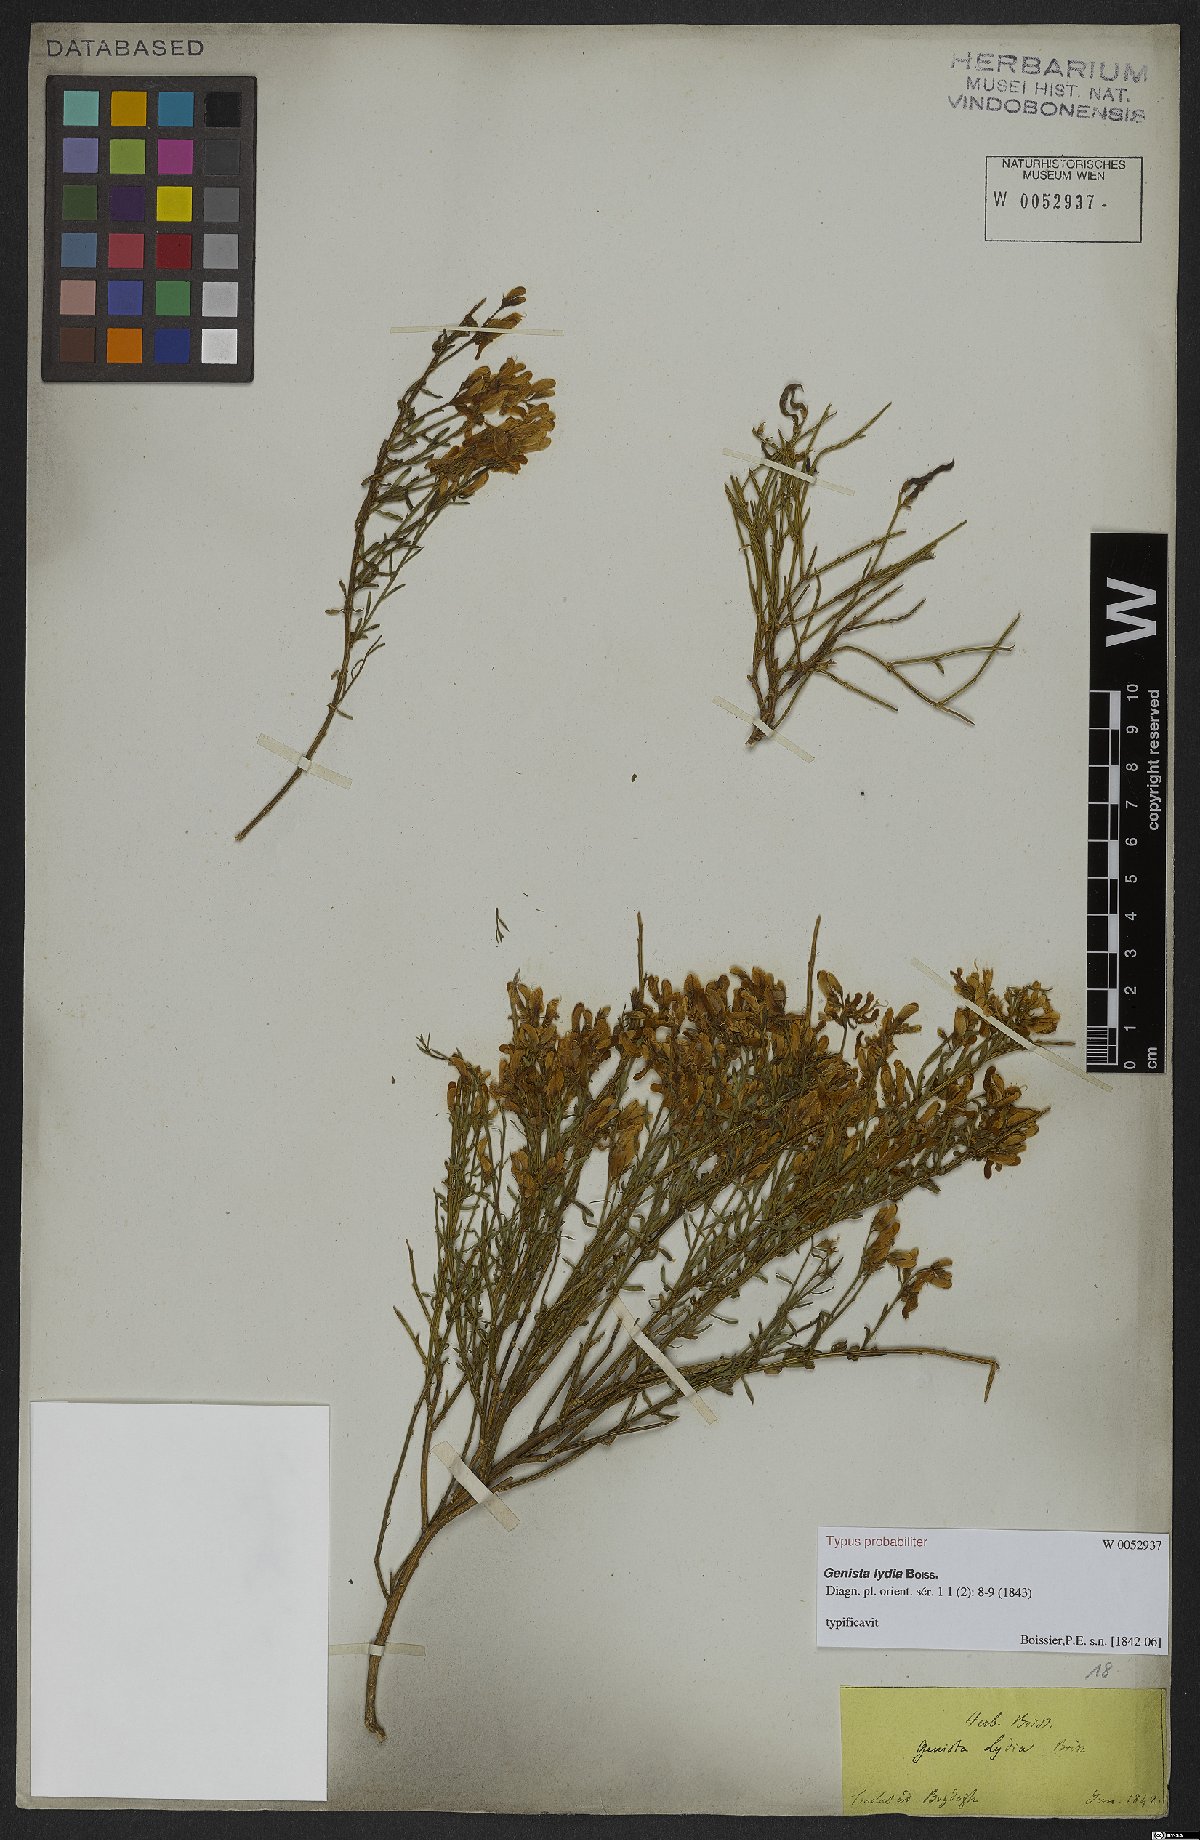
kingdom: Plantae
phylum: Tracheophyta
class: Magnoliopsida
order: Fabales
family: Fabaceae
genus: Genista
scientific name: Genista lydia
